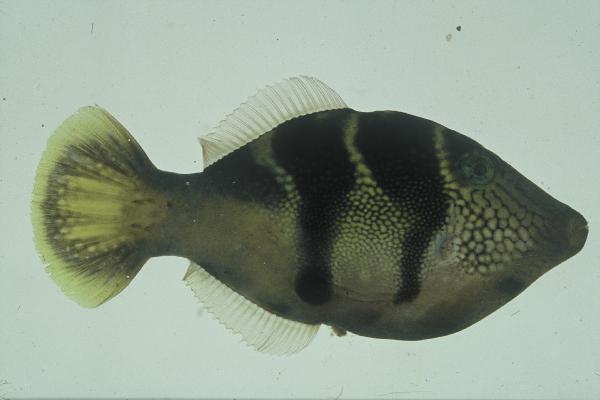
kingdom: Animalia
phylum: Chordata
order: Tetraodontiformes
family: Monacanthidae
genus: Paraluteres
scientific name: Paraluteres prionurus
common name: Black-saddled leatherjacket
